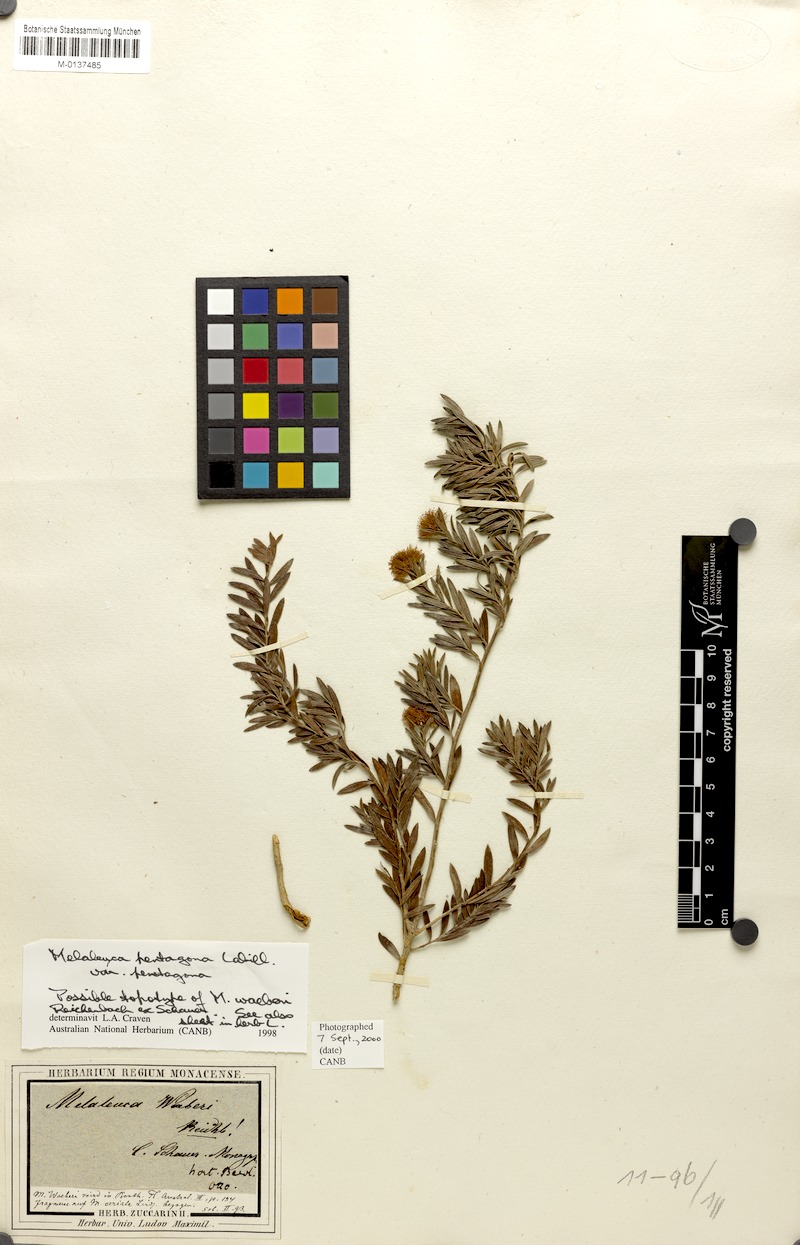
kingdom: Plantae
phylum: Tracheophyta
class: Magnoliopsida
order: Myrtales
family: Myrtaceae
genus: Melaleuca
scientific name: Melaleuca pentagona
